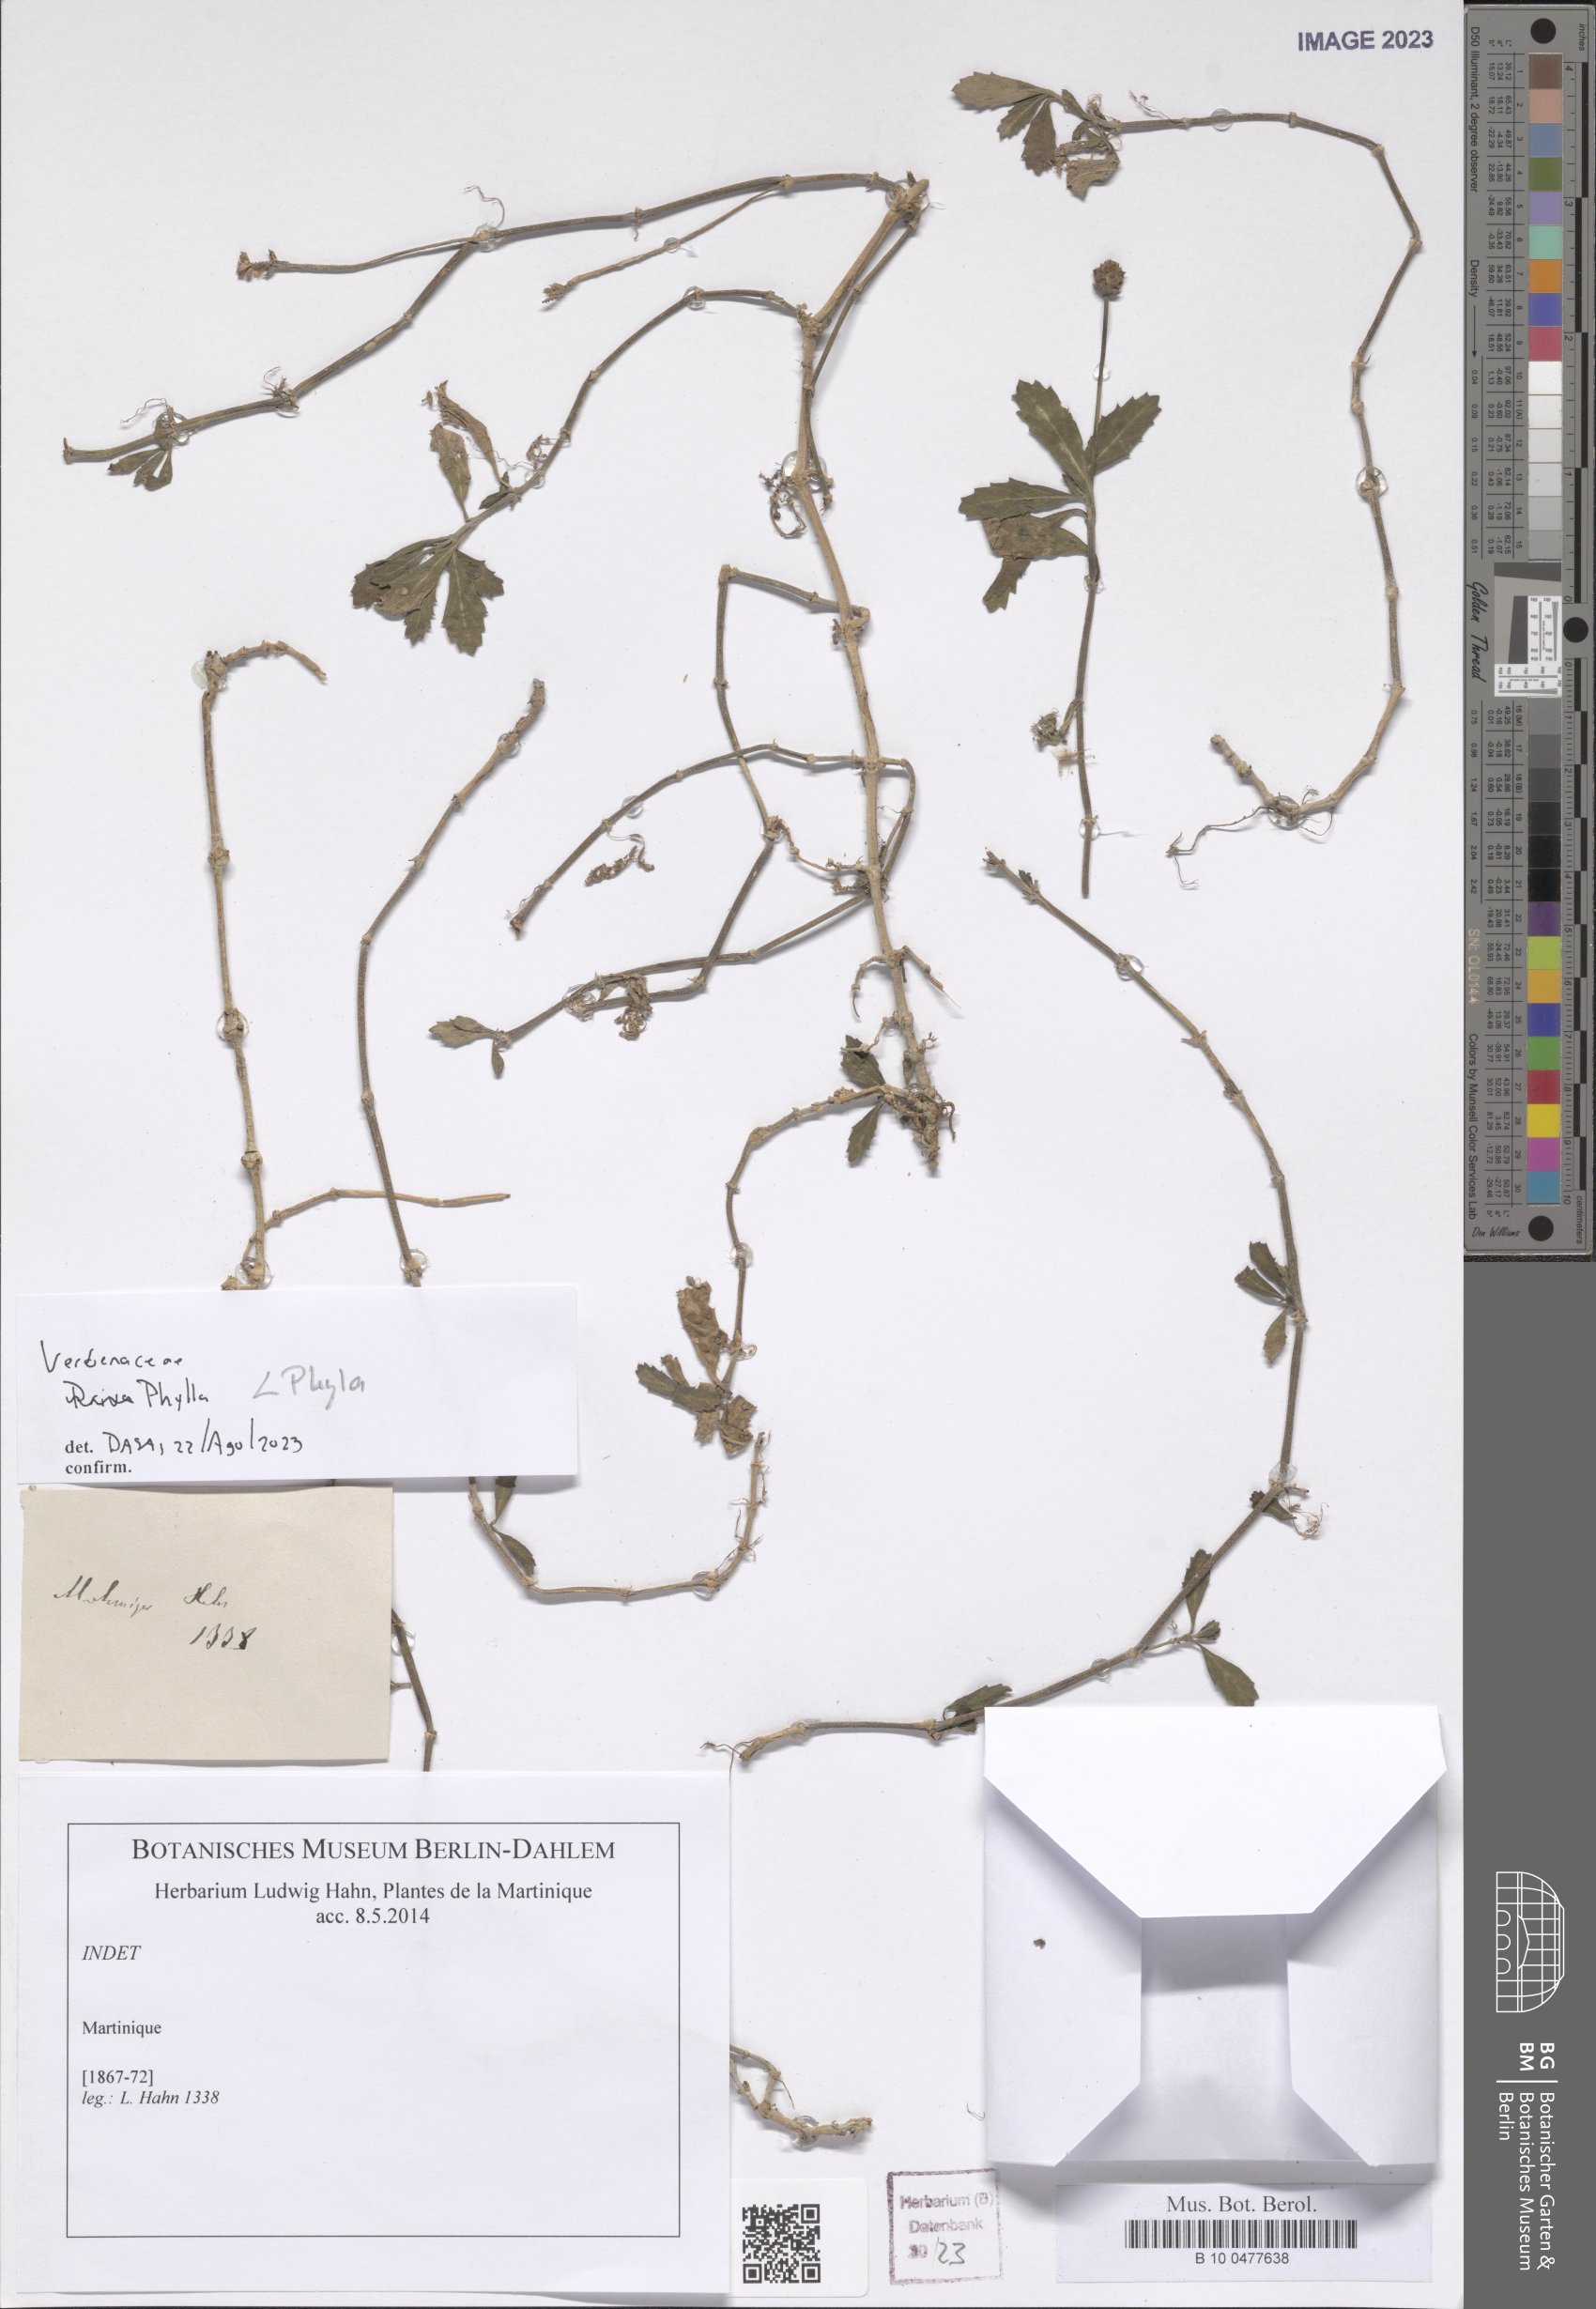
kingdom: Plantae
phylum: Tracheophyta
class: Magnoliopsida
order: Lamiales
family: Verbenaceae
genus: Phyla
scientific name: Phyla
